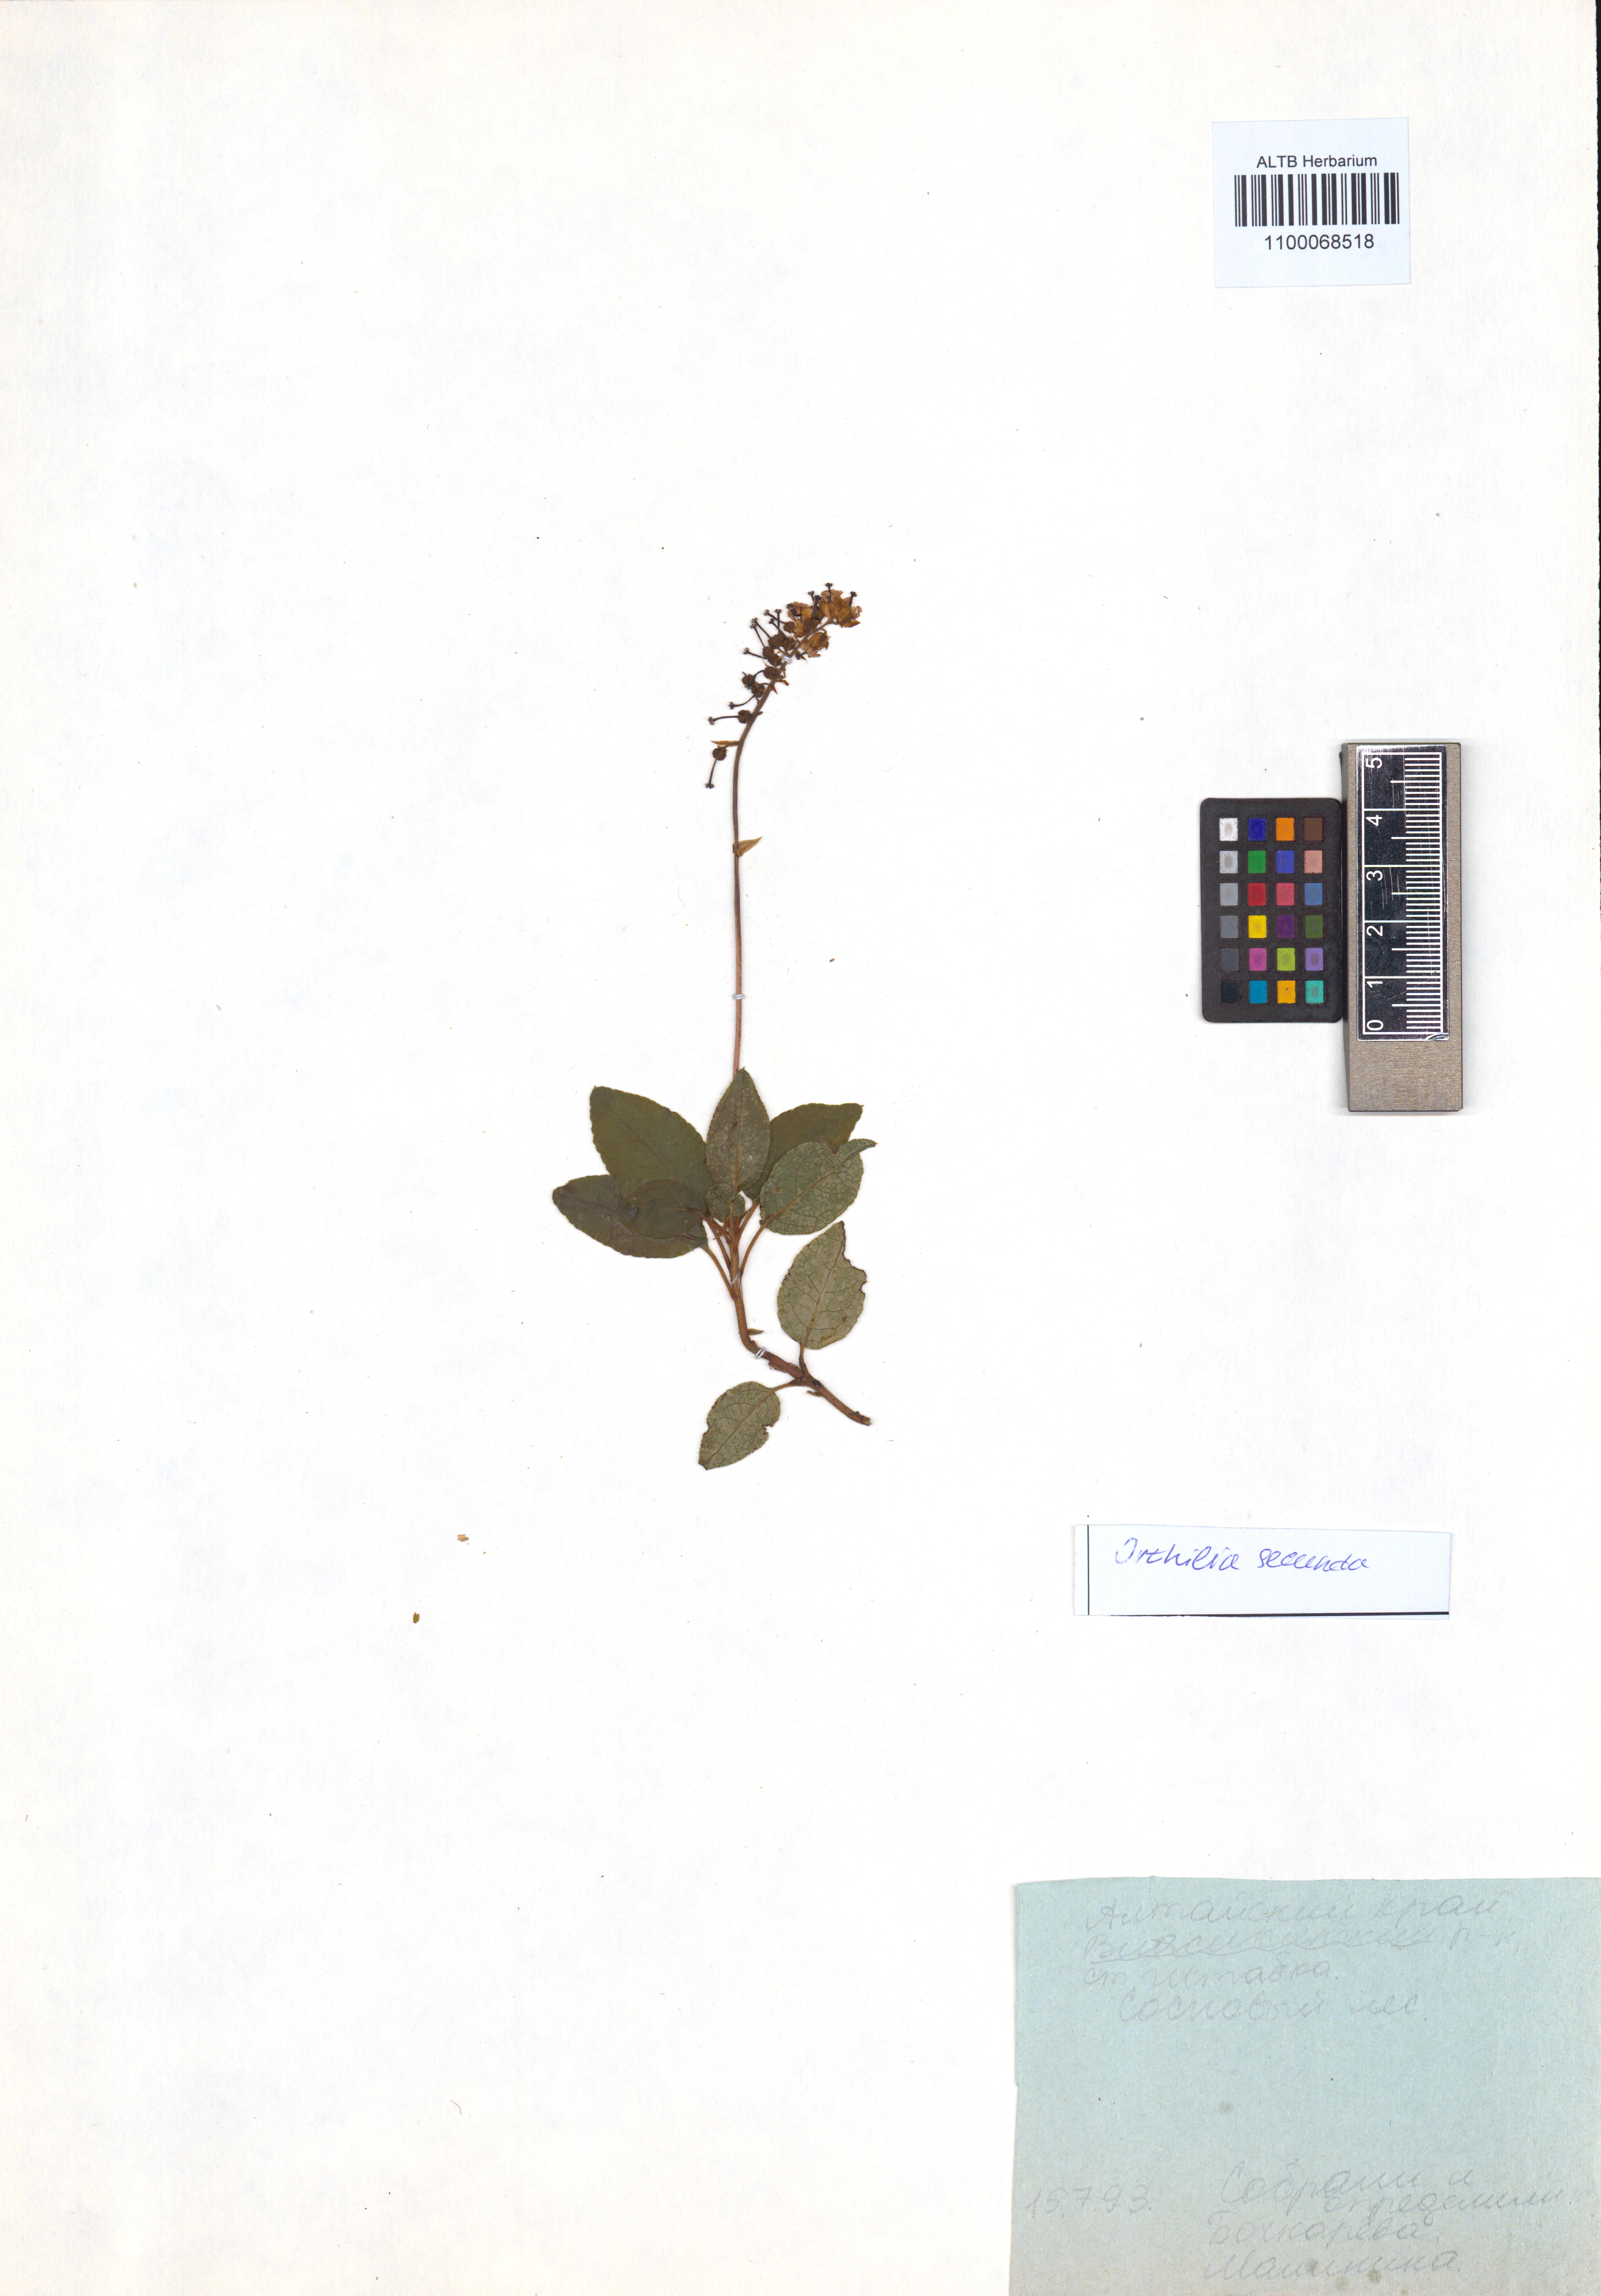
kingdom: Plantae
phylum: Tracheophyta
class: Magnoliopsida
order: Ericales
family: Ericaceae
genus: Orthilia
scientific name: Orthilia secunda
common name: One-sided orthilia
